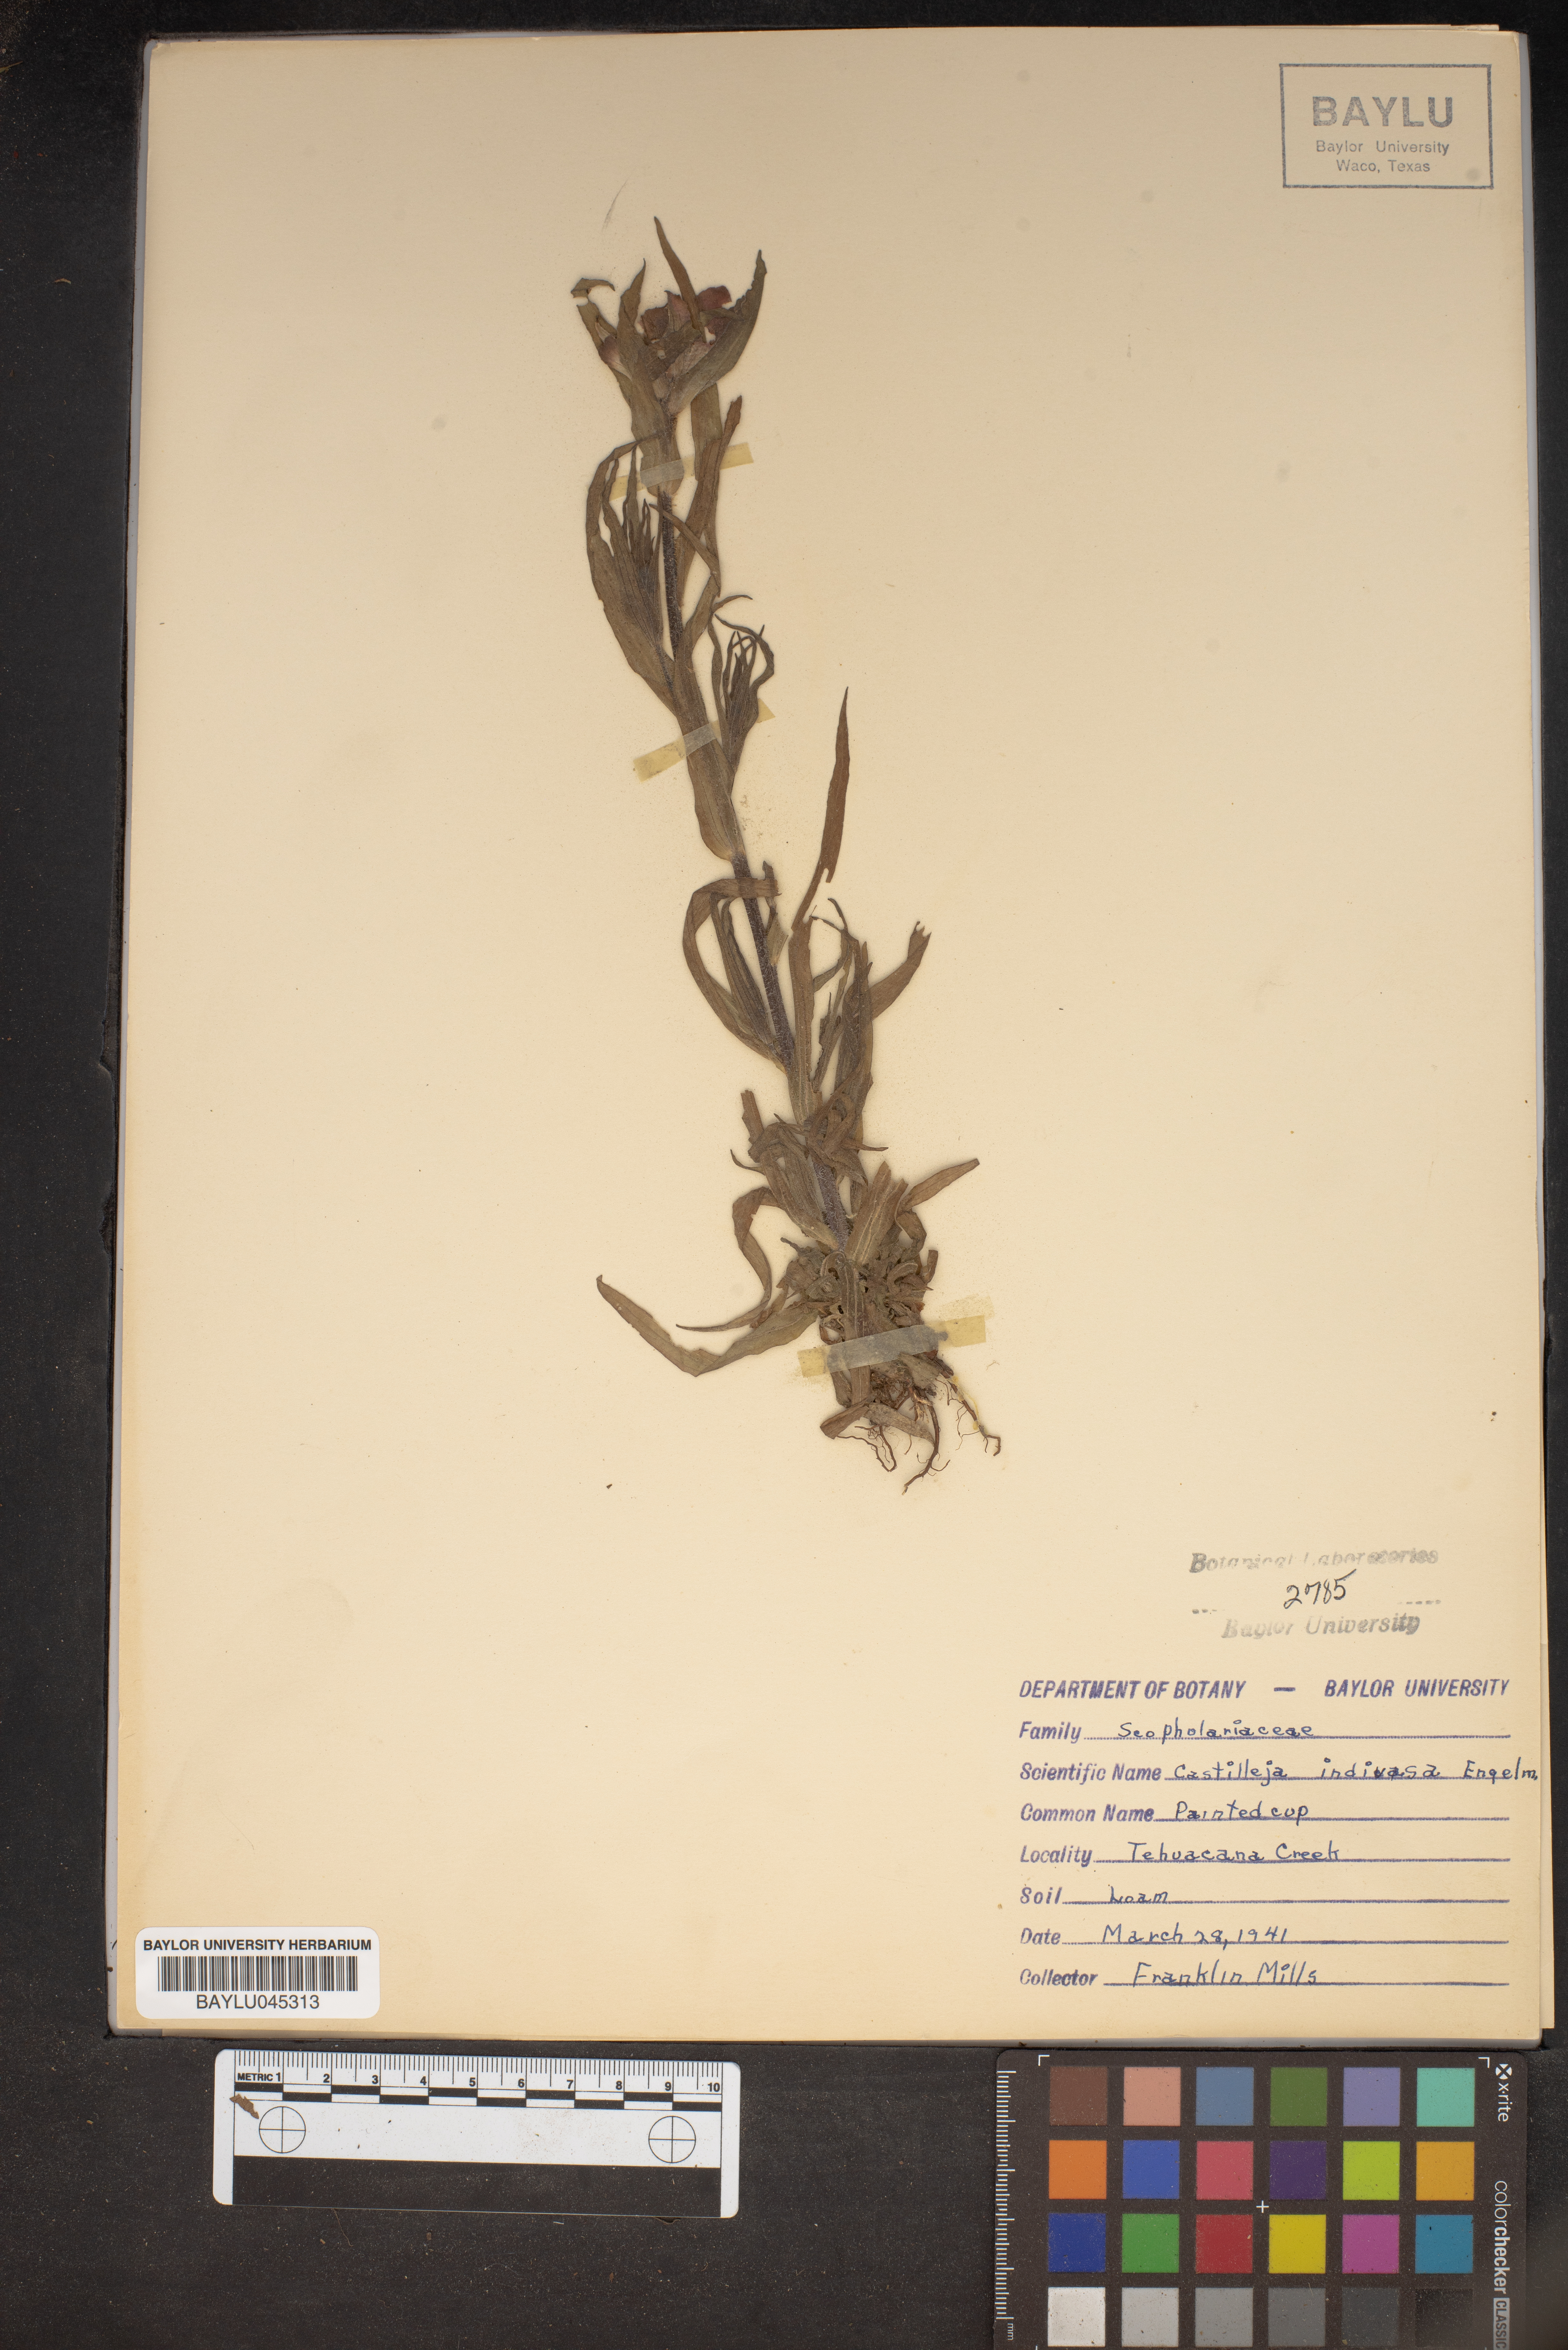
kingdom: Plantae
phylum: Tracheophyta
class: Magnoliopsida
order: Lamiales
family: Orobanchaceae
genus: Castilleja
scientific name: Castilleja indivisa
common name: Texas paintbrush
